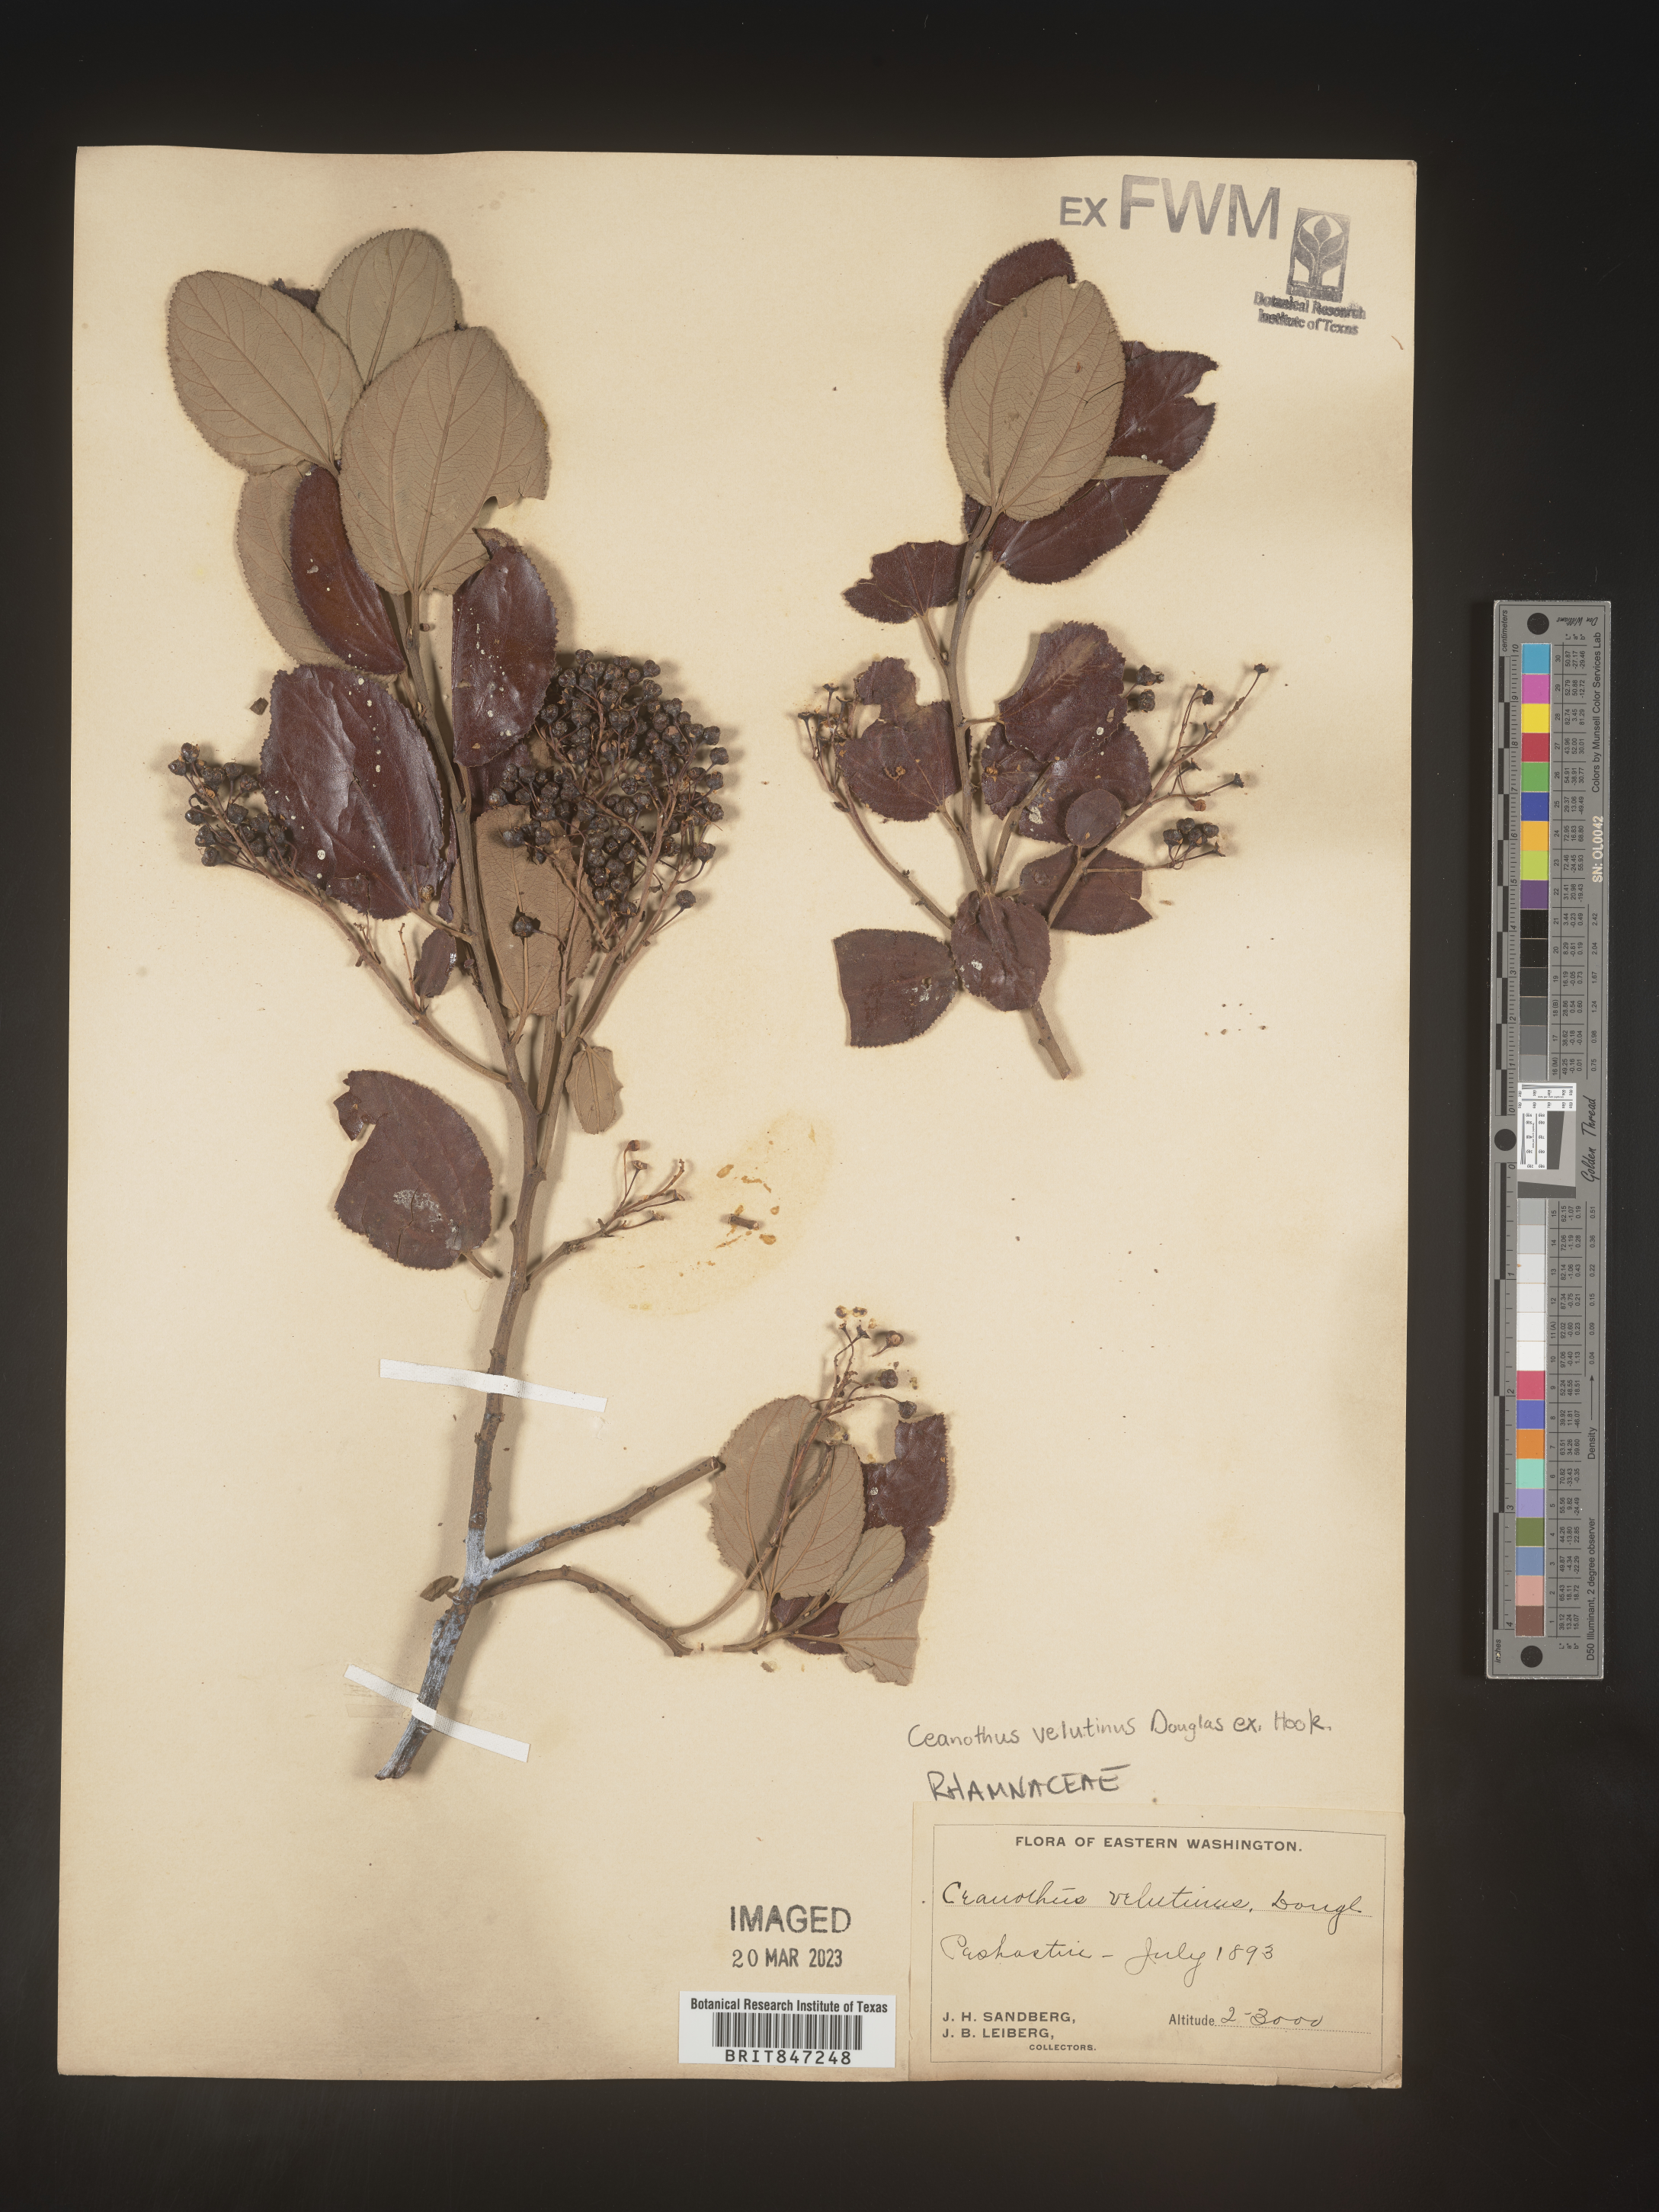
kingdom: Plantae
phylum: Tracheophyta
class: Magnoliopsida
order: Rosales
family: Rhamnaceae
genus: Ceanothus
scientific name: Ceanothus velutinus
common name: Snowbrush
